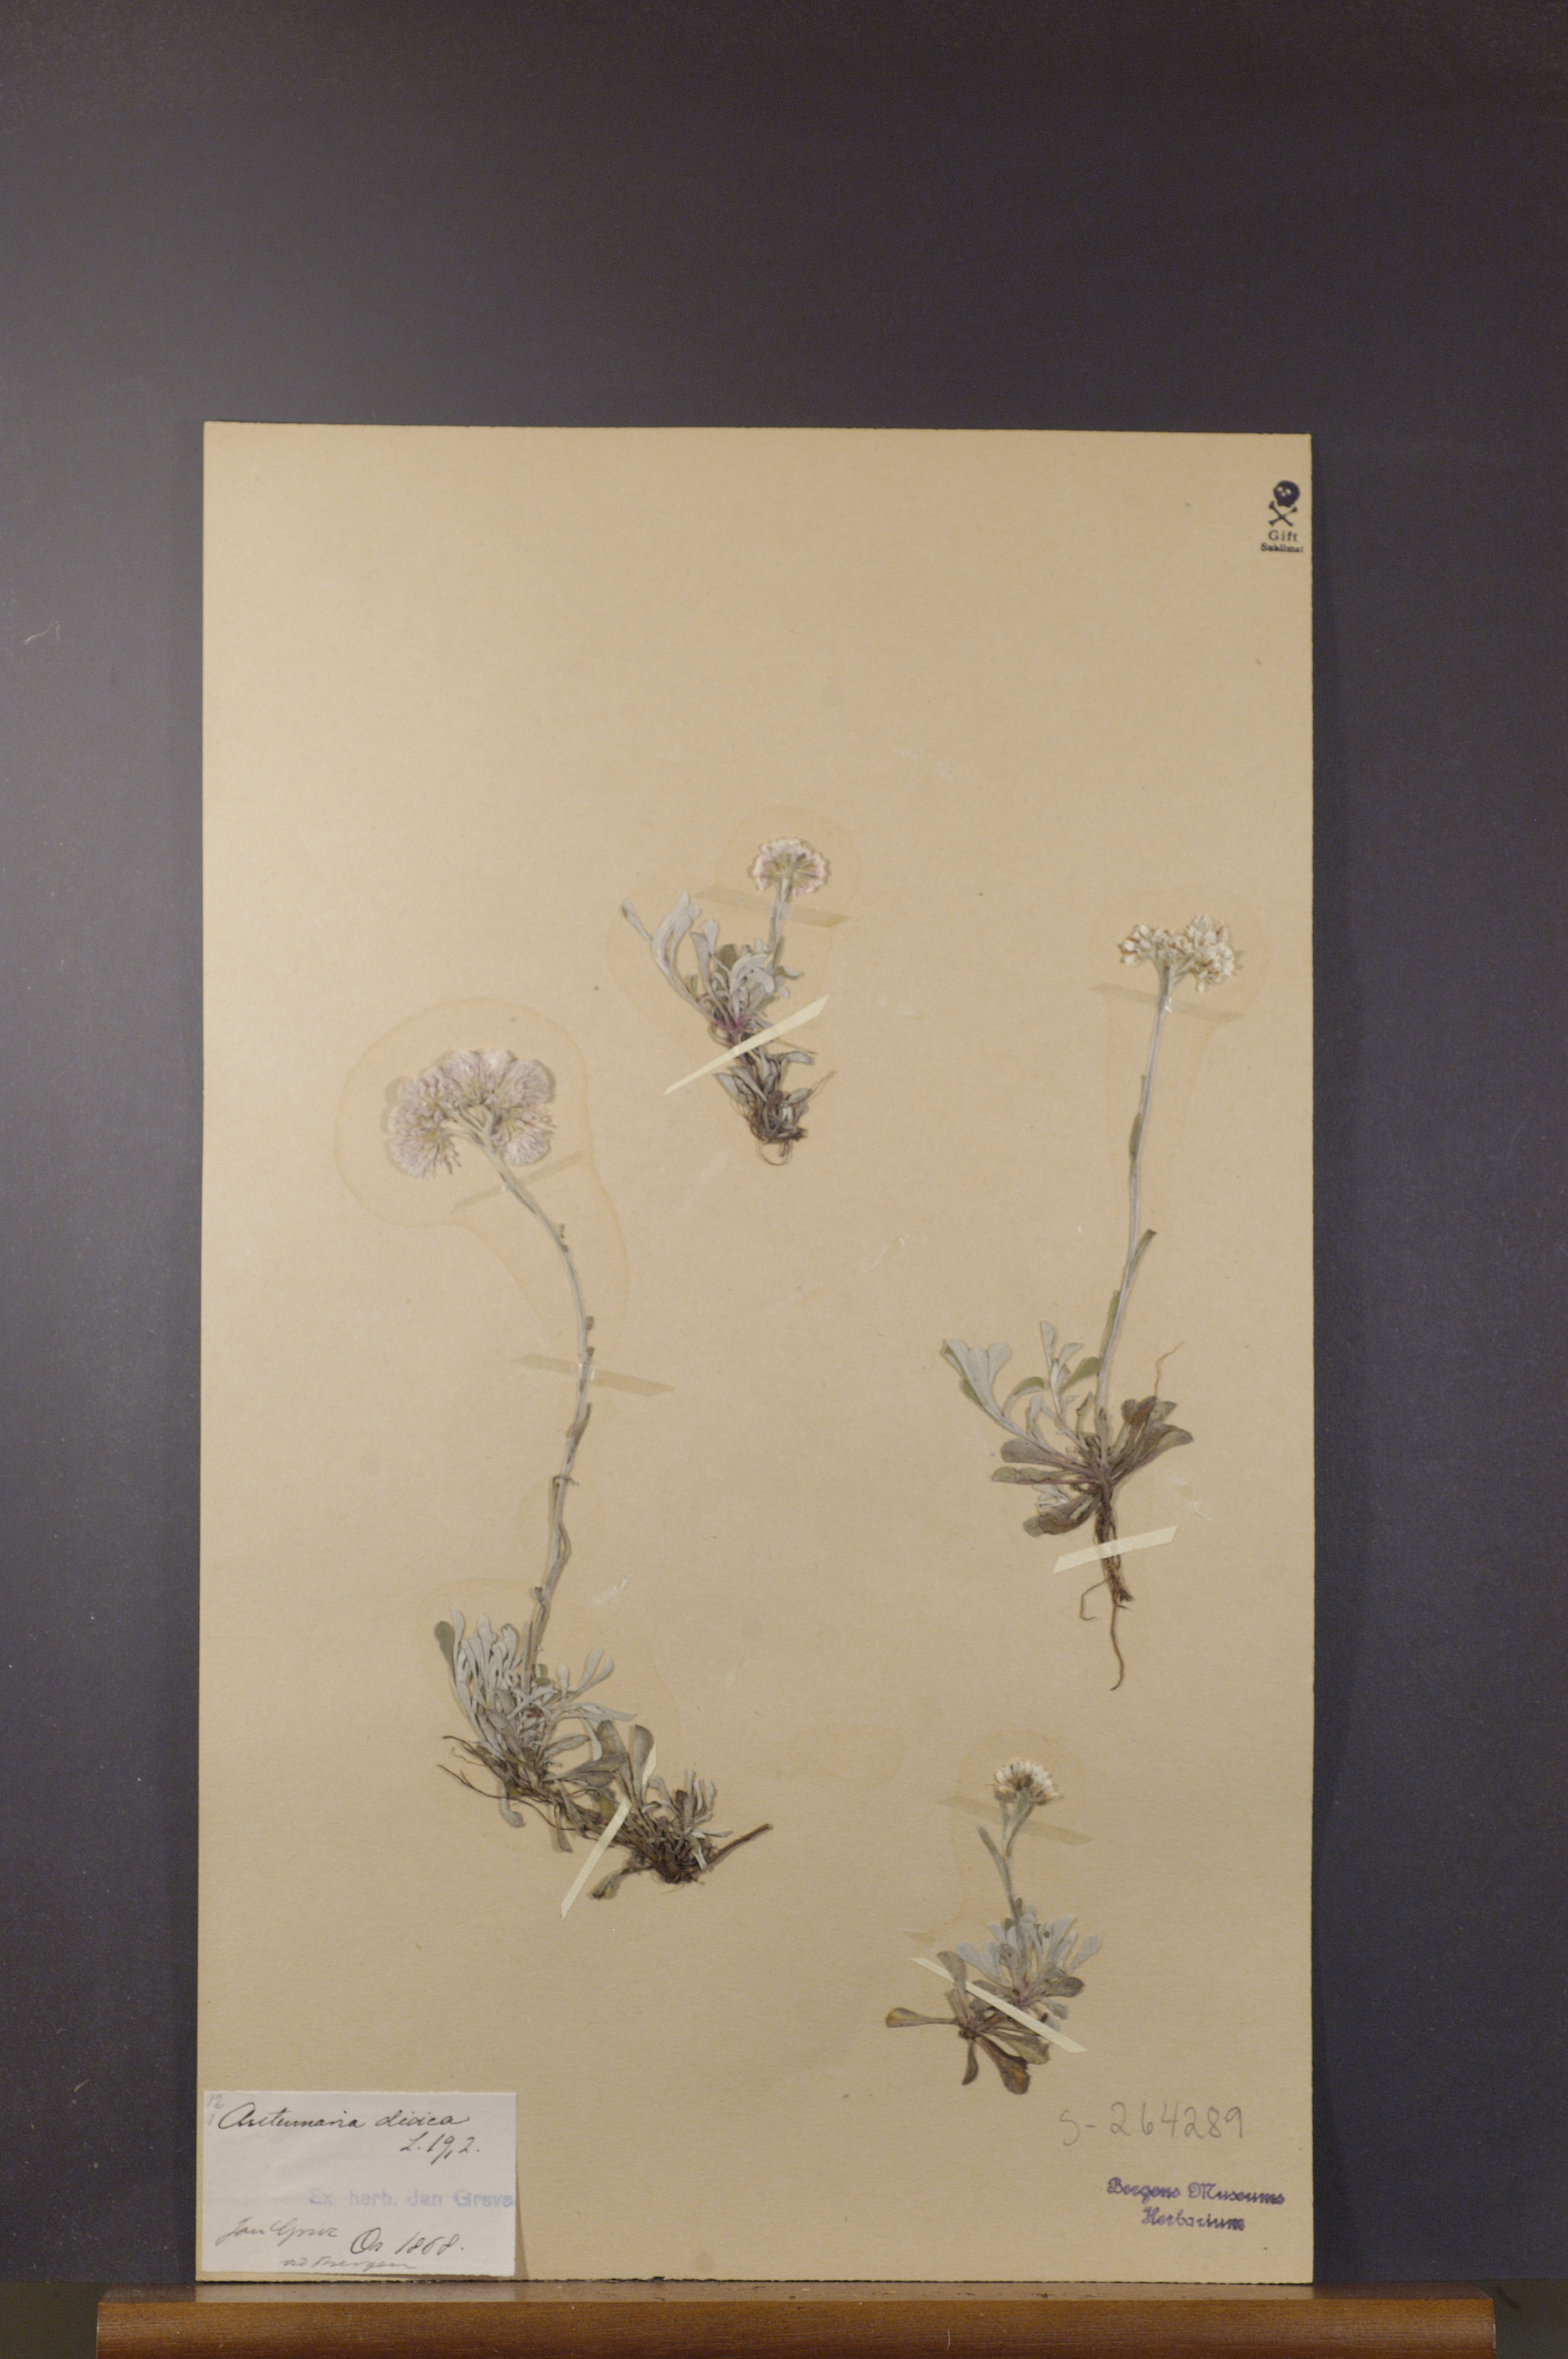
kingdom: Plantae
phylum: Tracheophyta
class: Magnoliopsida
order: Asterales
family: Asteraceae
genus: Antennaria
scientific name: Antennaria dioica
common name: Mountain everlasting
